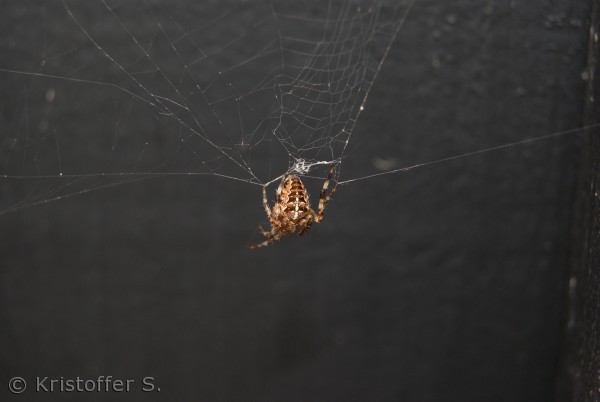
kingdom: Animalia
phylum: Arthropoda
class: Arachnida
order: Araneae
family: Araneidae
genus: Araneus
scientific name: Araneus diadematus
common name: Korsedderkop
